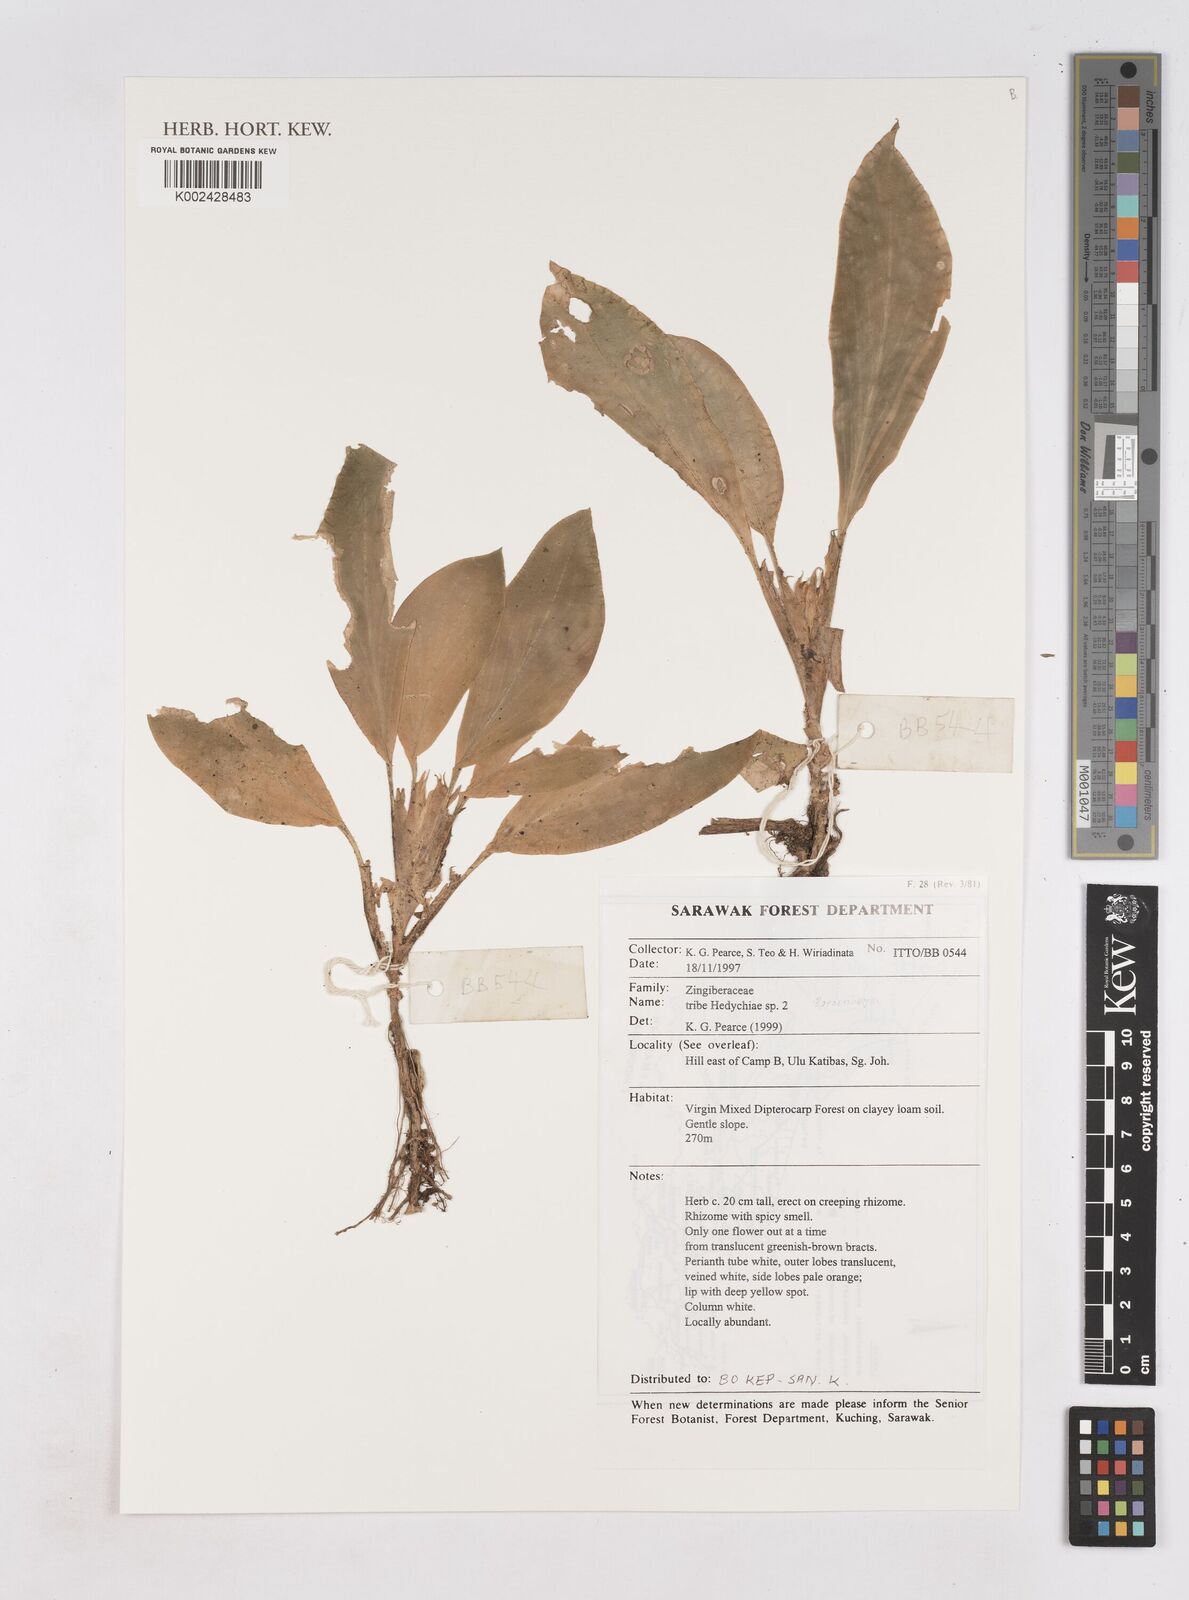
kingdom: Plantae
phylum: Tracheophyta
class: Liliopsida
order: Zingiberales
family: Zingiberaceae
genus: Boesenbergia
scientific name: Boesenbergia
